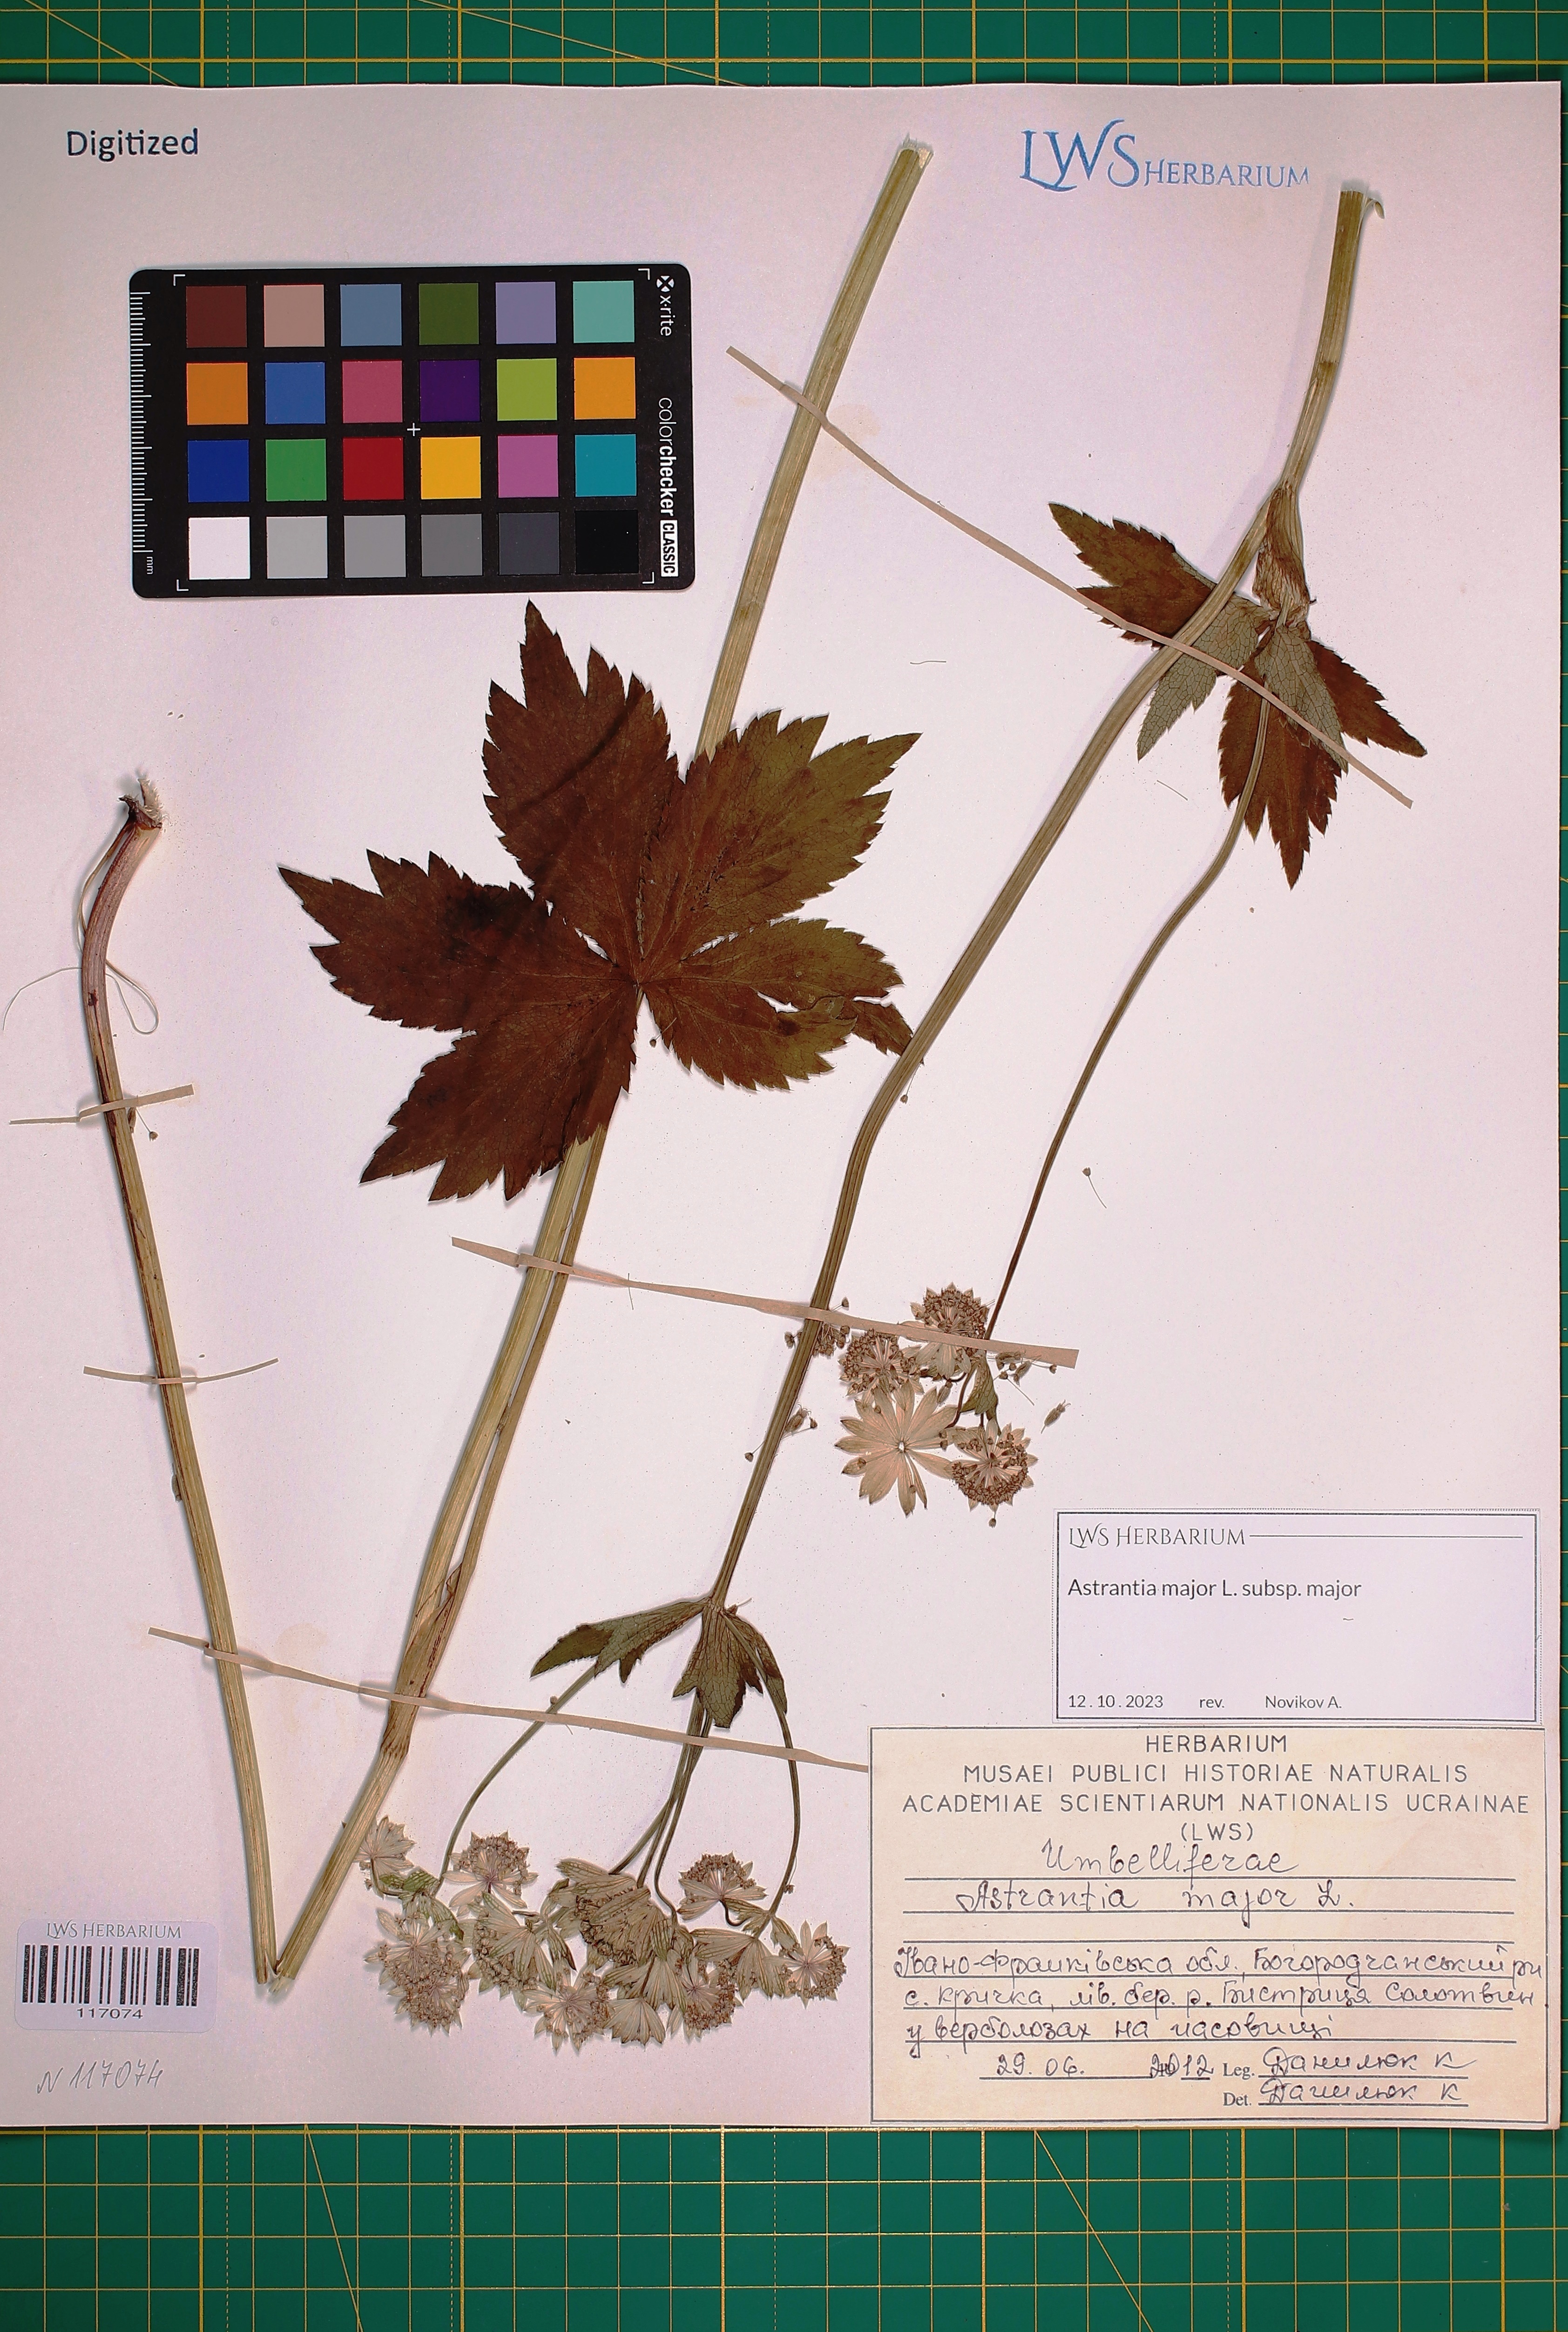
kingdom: Plantae
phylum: Tracheophyta
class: Magnoliopsida
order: Apiales
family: Apiaceae
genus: Astrantia
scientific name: Astrantia major
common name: Greater masterwort
